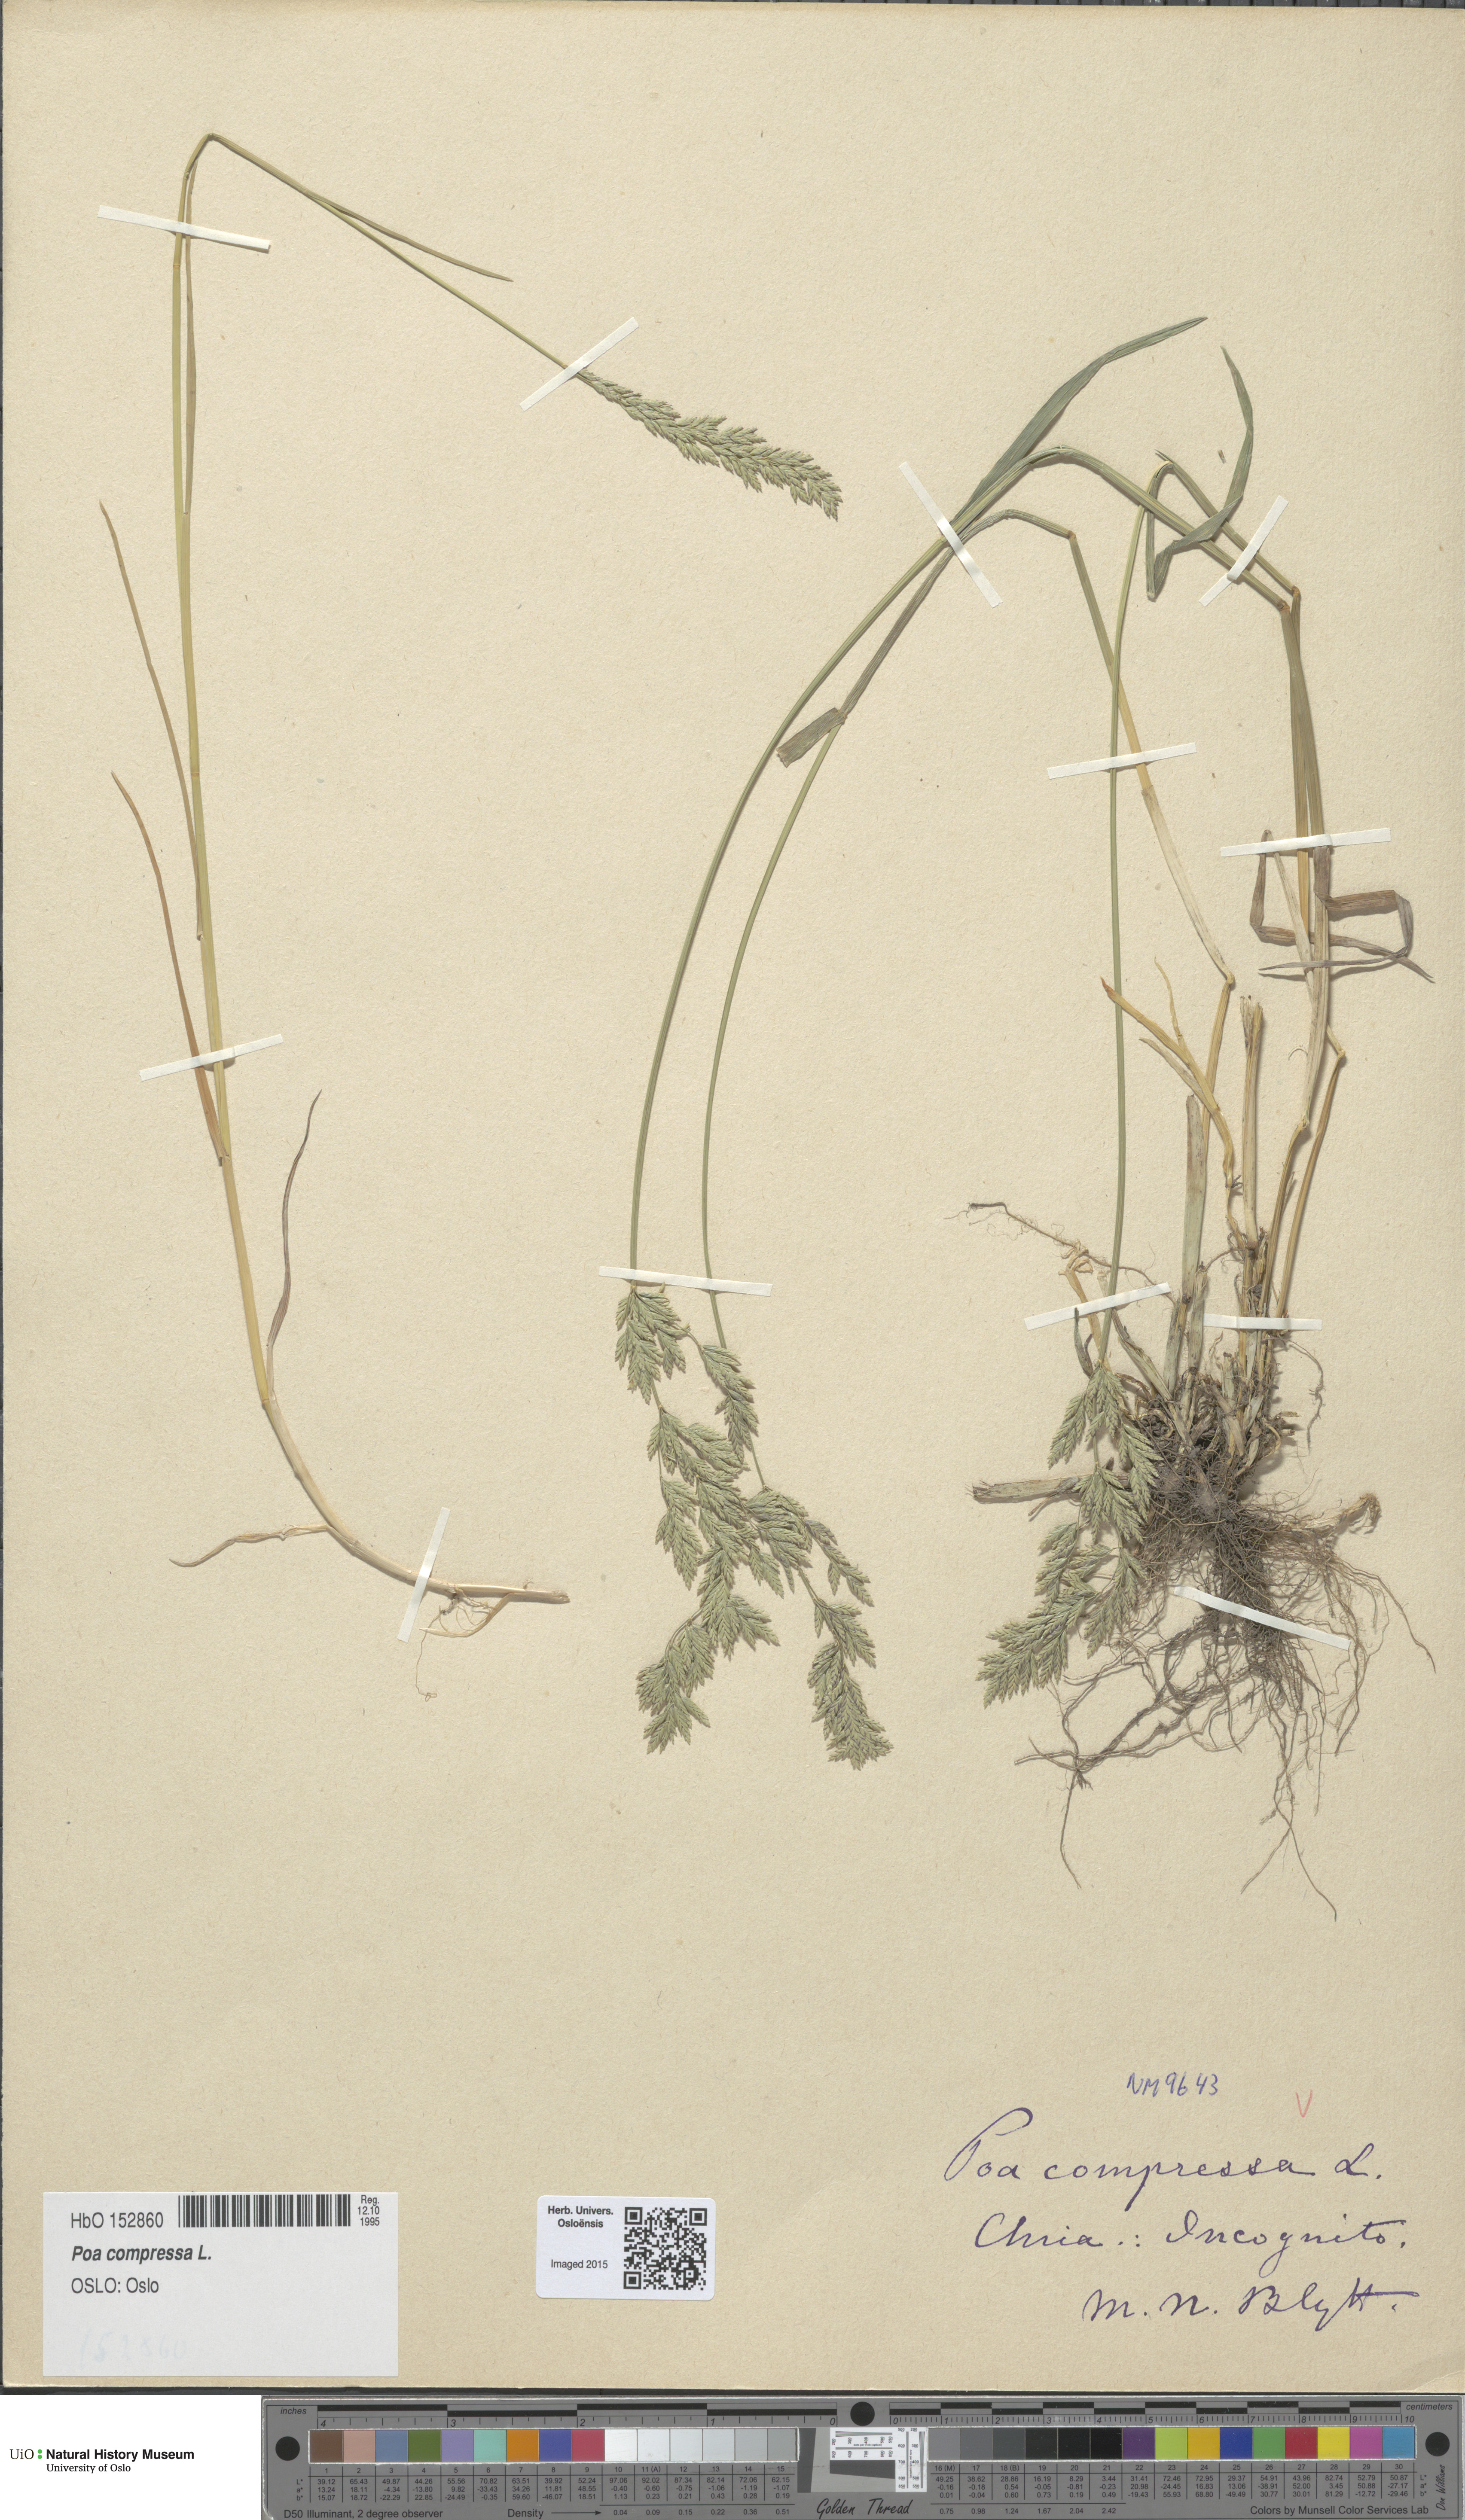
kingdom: Plantae
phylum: Tracheophyta
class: Liliopsida
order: Poales
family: Poaceae
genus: Poa
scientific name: Poa compressa
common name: Canada bluegrass
